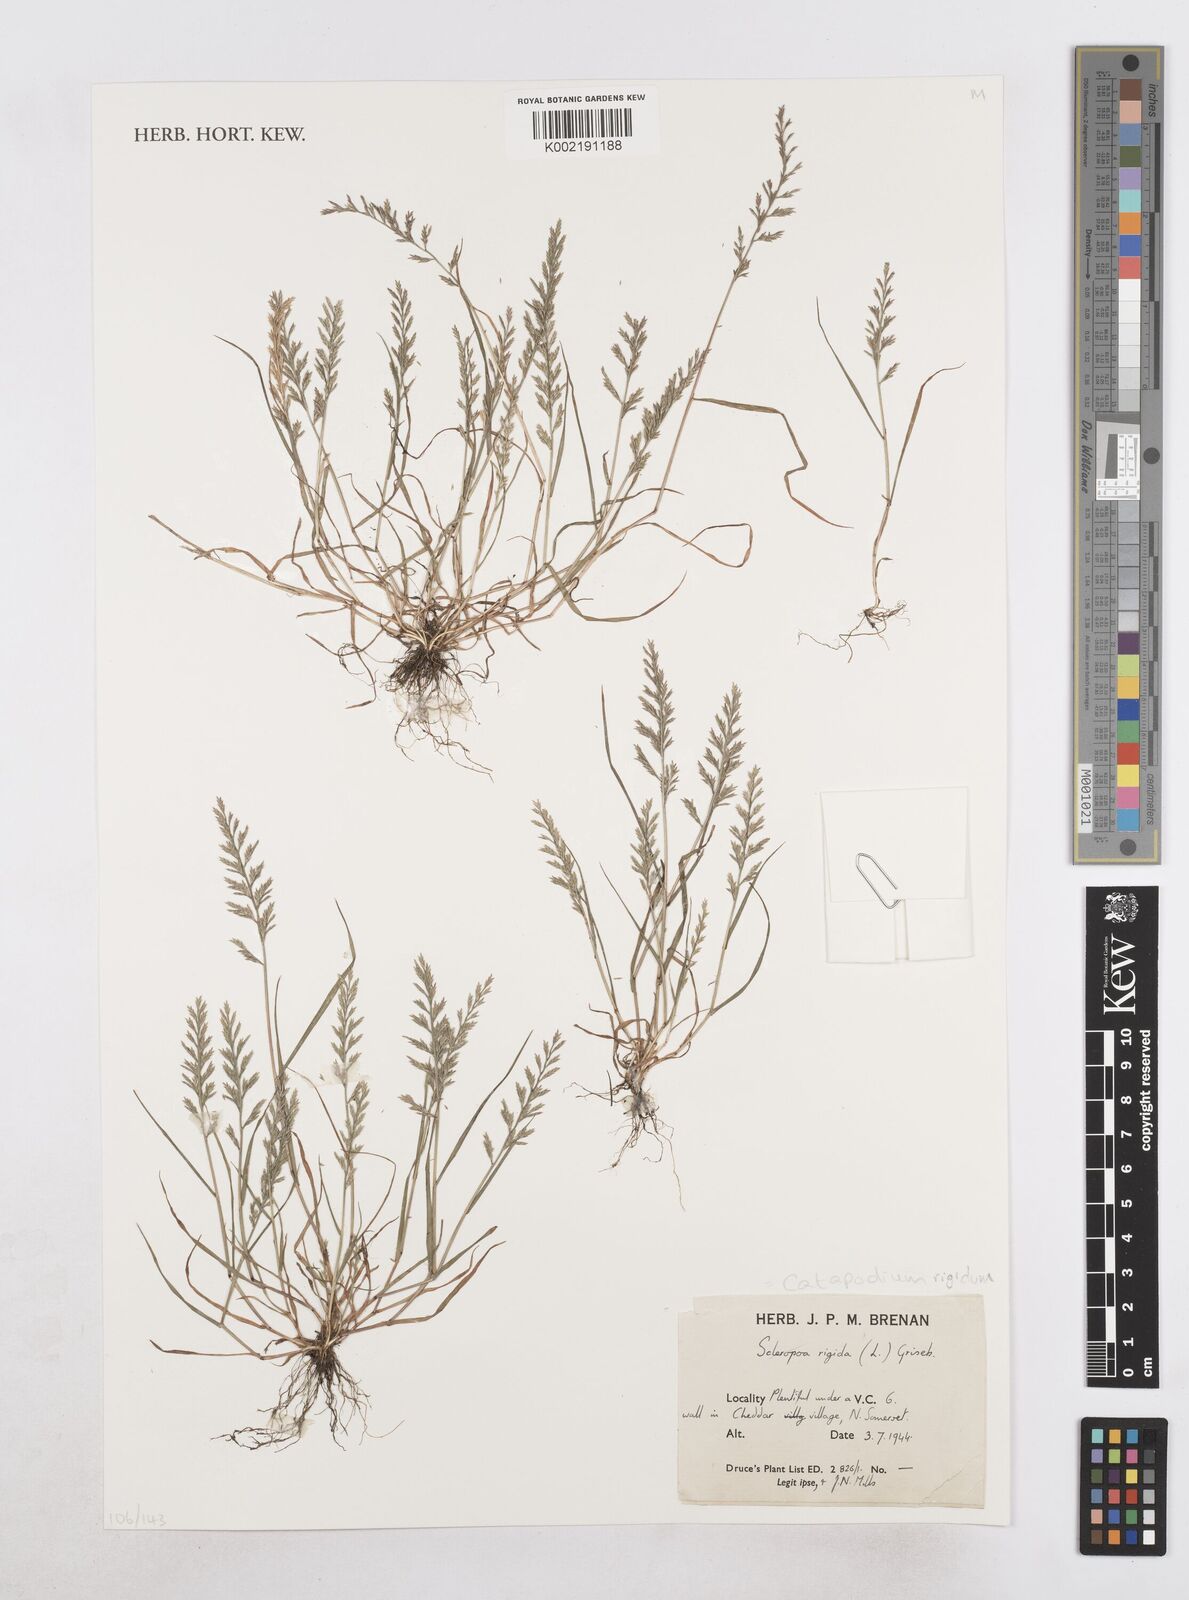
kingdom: Plantae
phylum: Tracheophyta
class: Liliopsida
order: Poales
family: Poaceae
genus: Catapodium
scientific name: Catapodium rigidum
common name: Fern-grass
